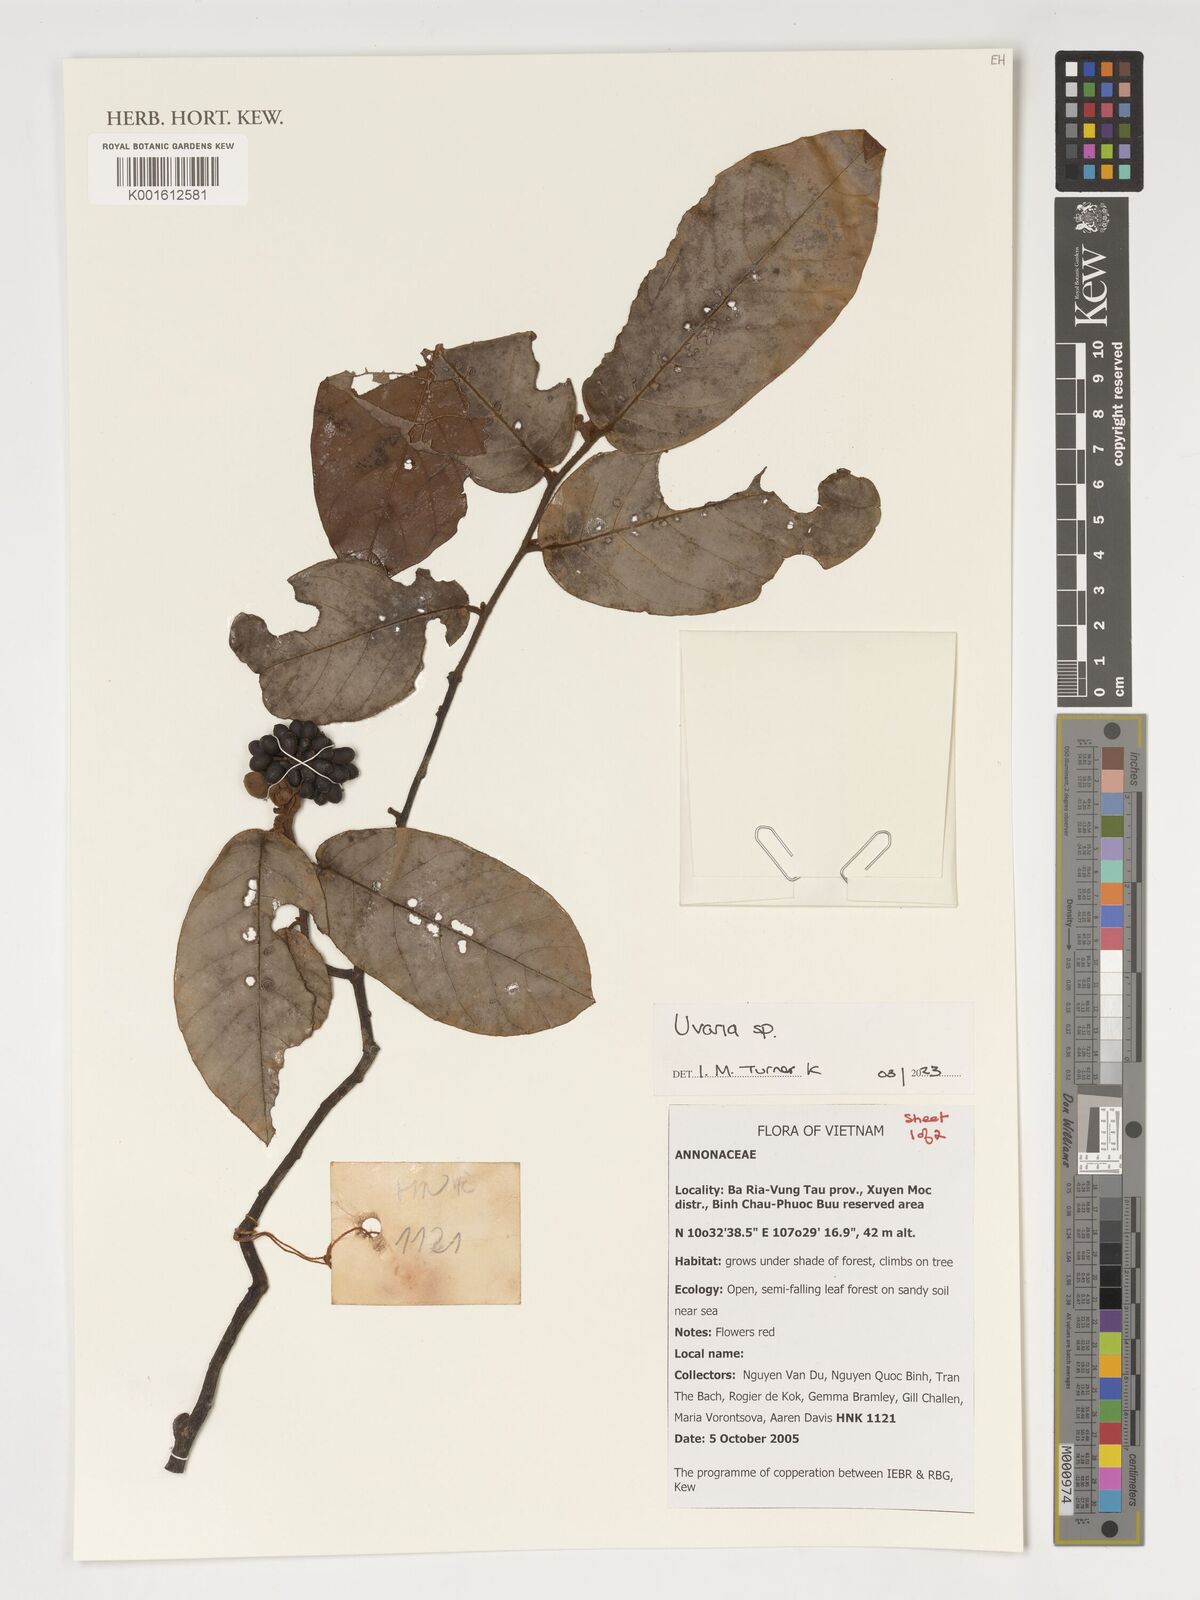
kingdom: Plantae
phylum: Tracheophyta
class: Magnoliopsida
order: Magnoliales
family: Annonaceae
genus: Uvaria
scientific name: Uvaria
